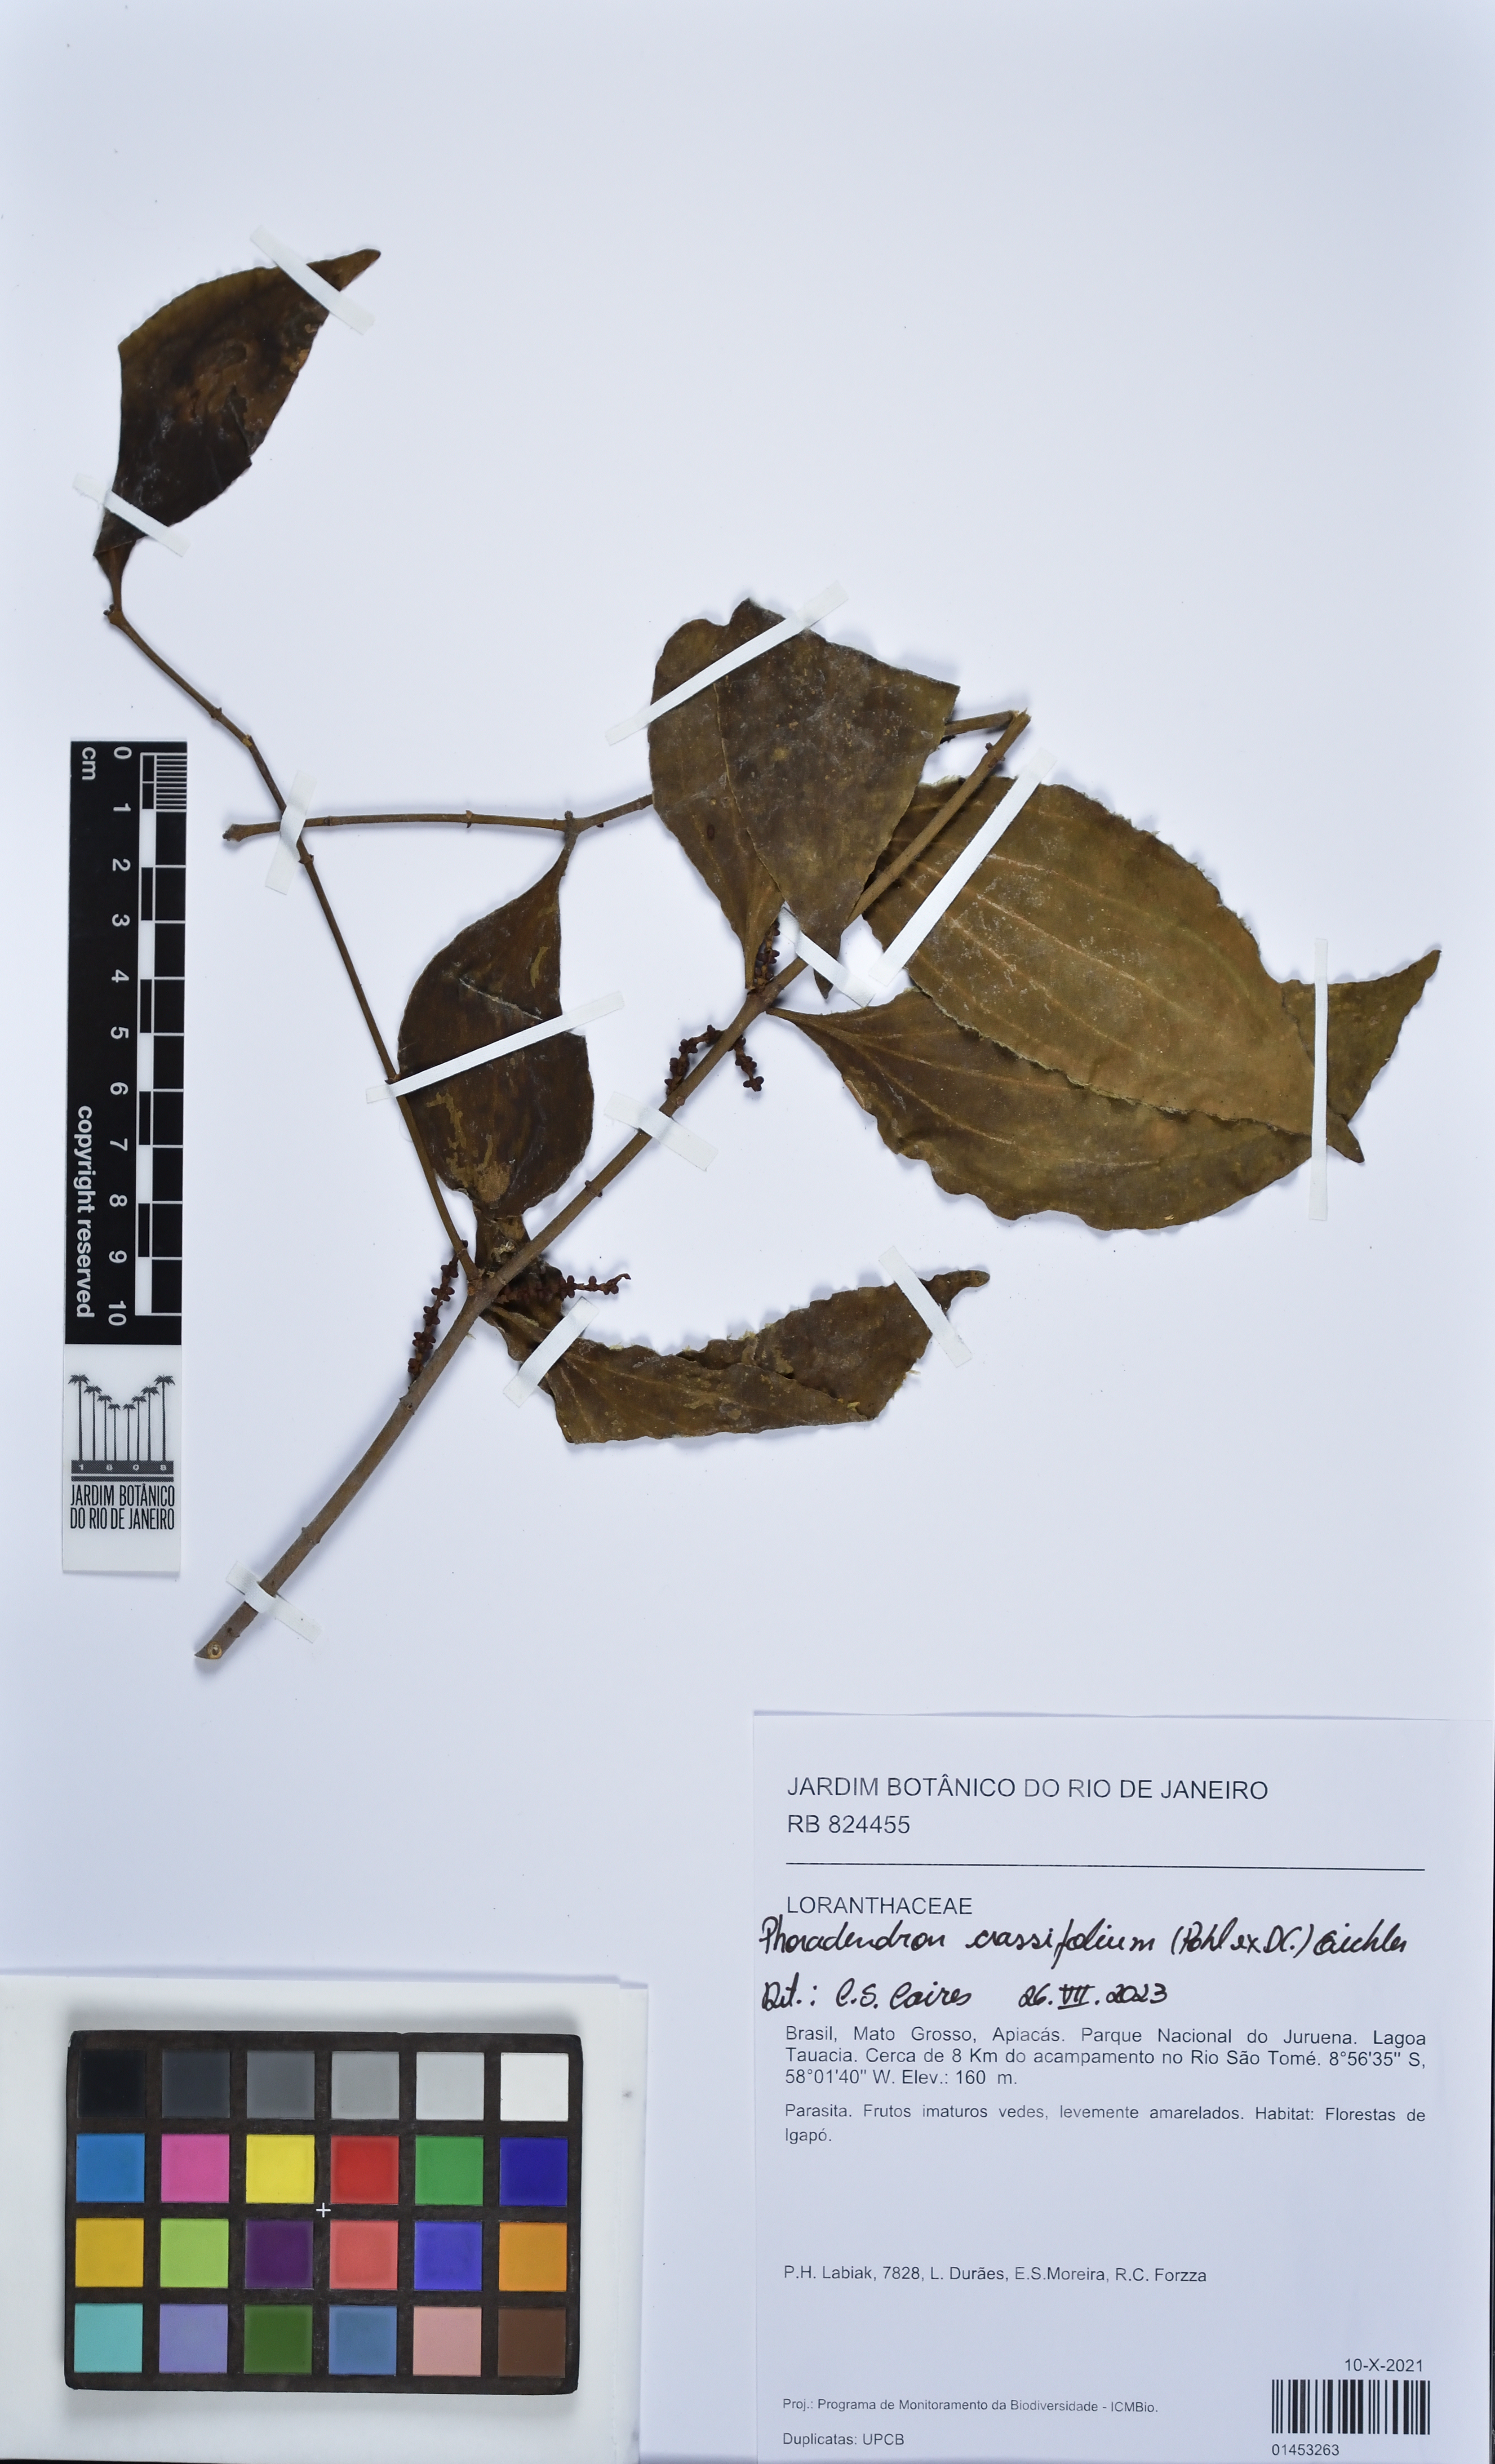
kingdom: Plantae
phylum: Tracheophyta
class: Magnoliopsida
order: Santalales
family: Viscaceae
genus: Phoradendron
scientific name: Phoradendron crassifolium
